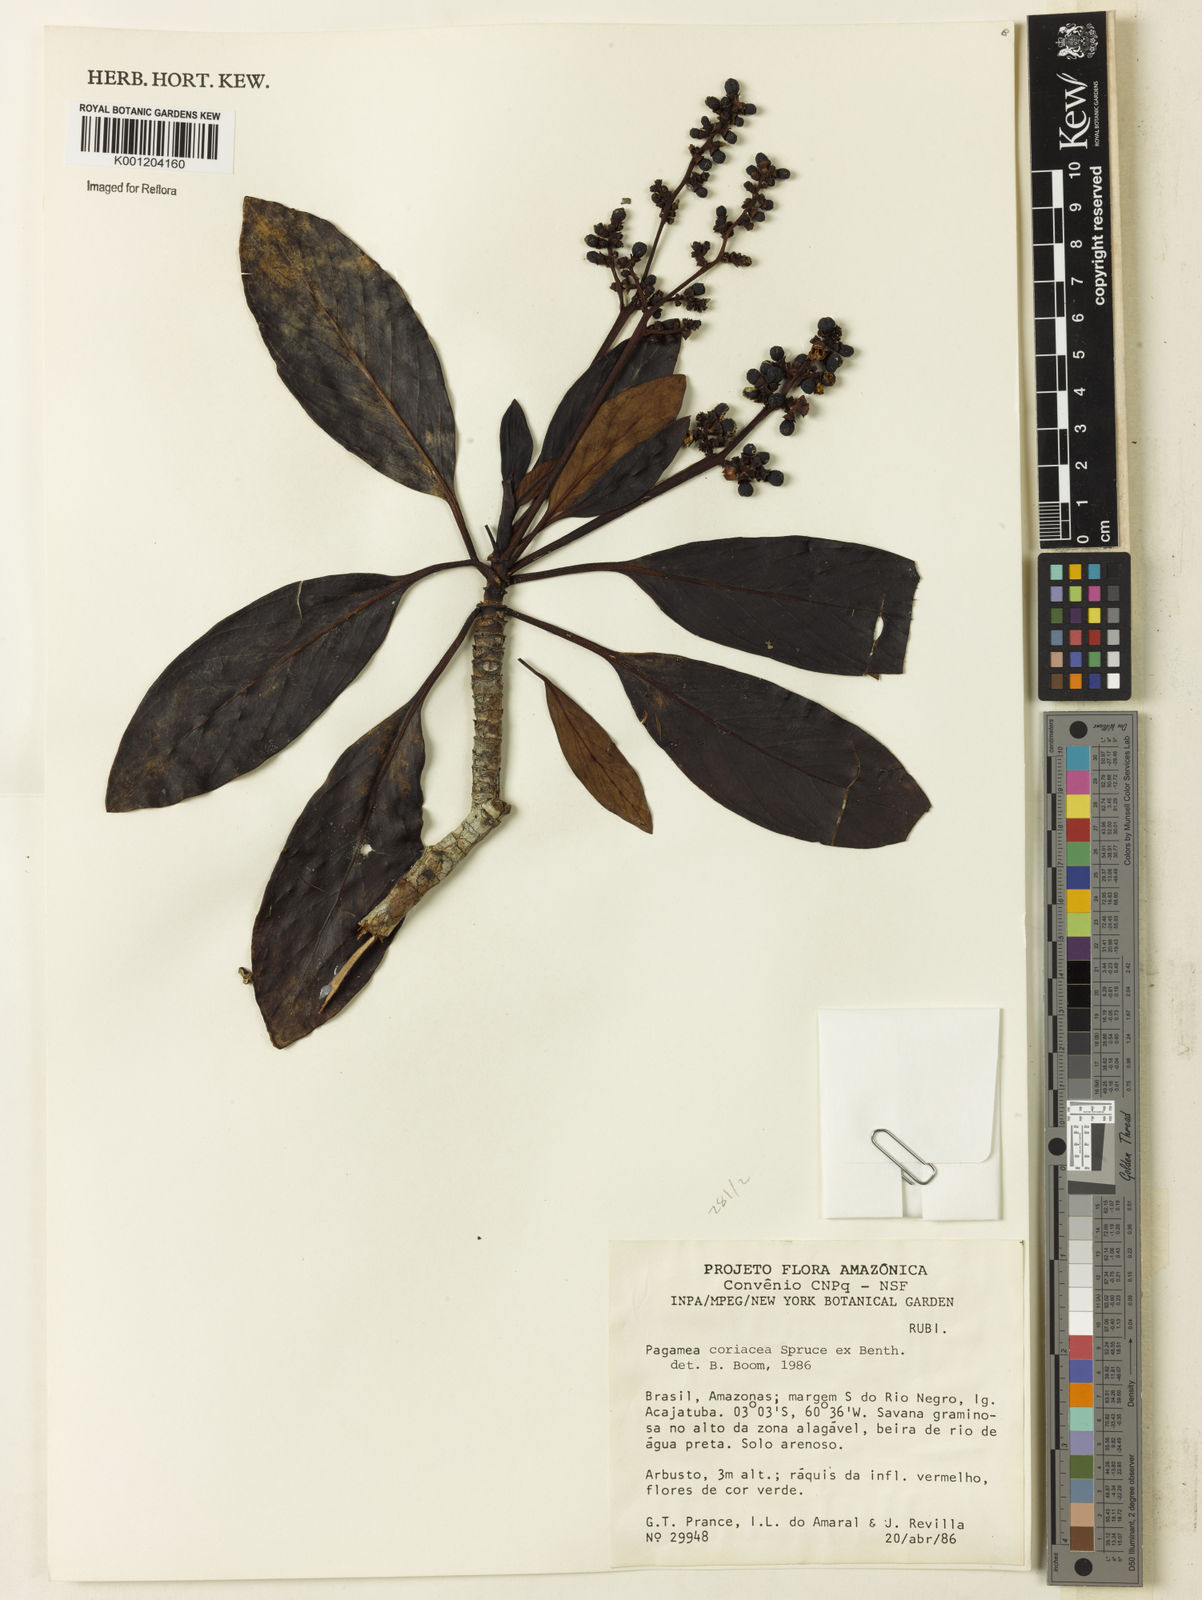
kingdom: Plantae
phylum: Tracheophyta
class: Magnoliopsida
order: Gentianales
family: Rubiaceae
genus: Pagamea
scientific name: Pagamea coriacea
